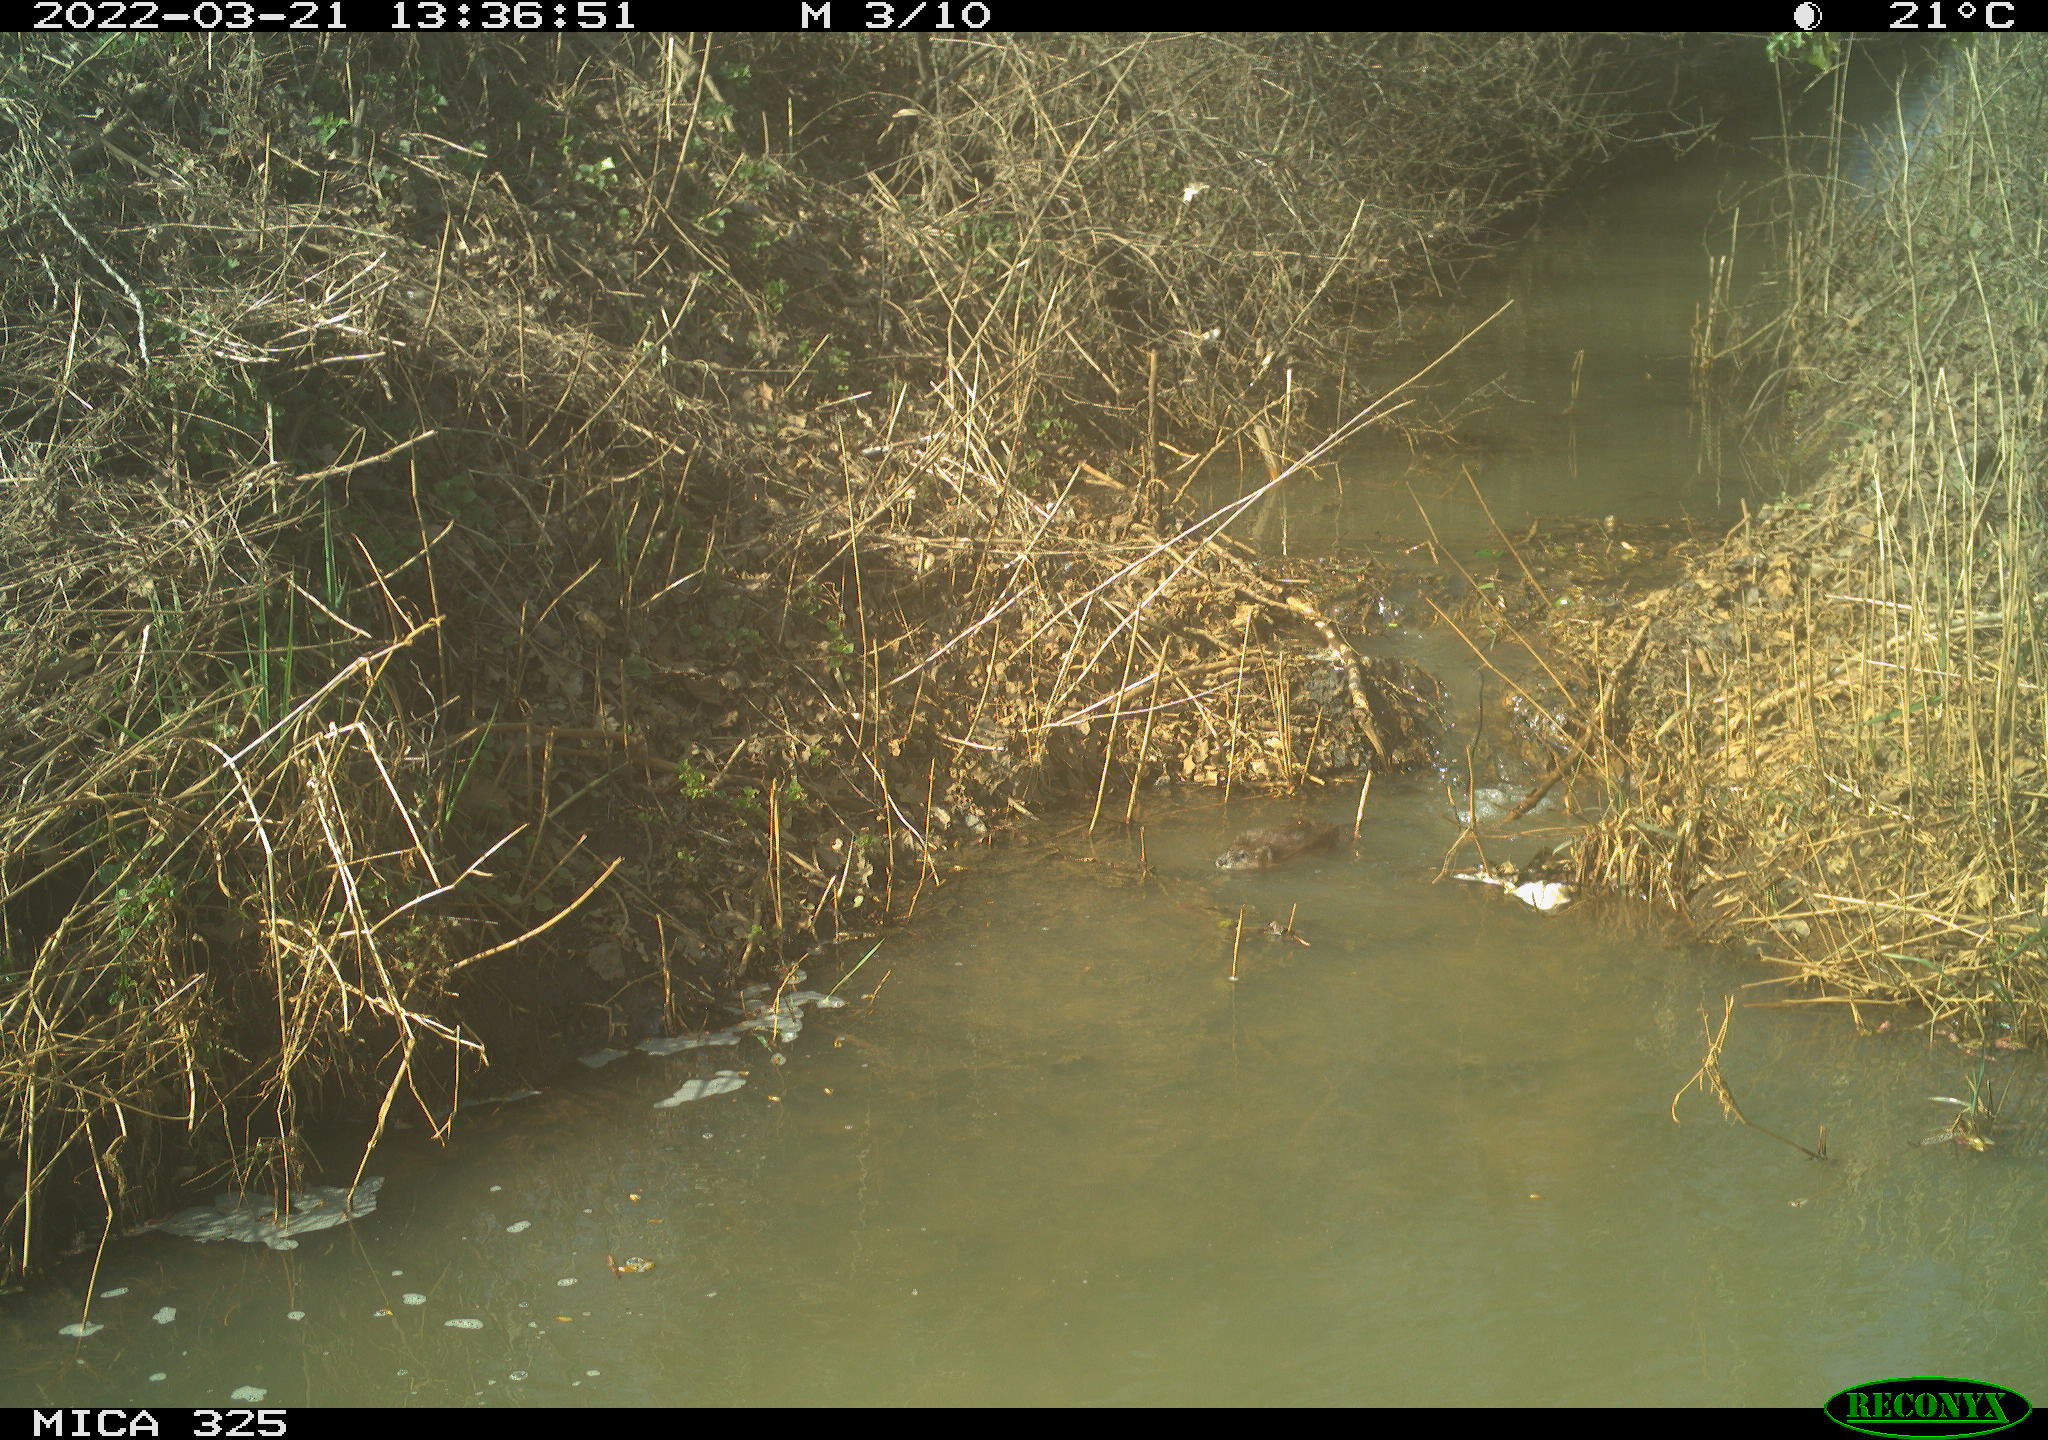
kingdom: Animalia
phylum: Chordata
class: Mammalia
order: Rodentia
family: Cricetidae
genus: Ondatra
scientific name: Ondatra zibethicus
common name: Muskrat
